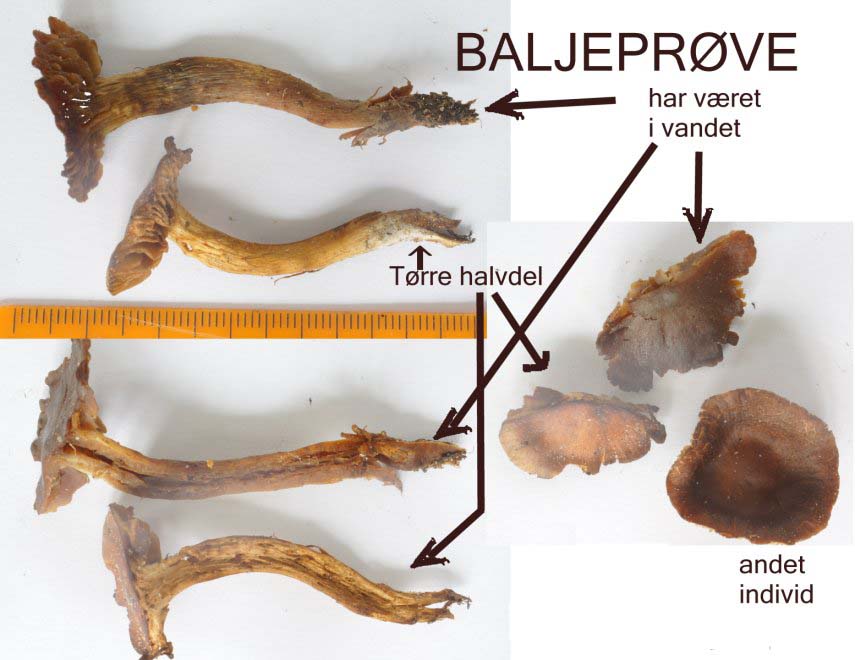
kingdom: Fungi
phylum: Basidiomycota
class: Agaricomycetes
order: Agaricales
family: Cortinariaceae
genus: Cortinarius
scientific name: Cortinarius saniosus
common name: gultrævlet slørhat
